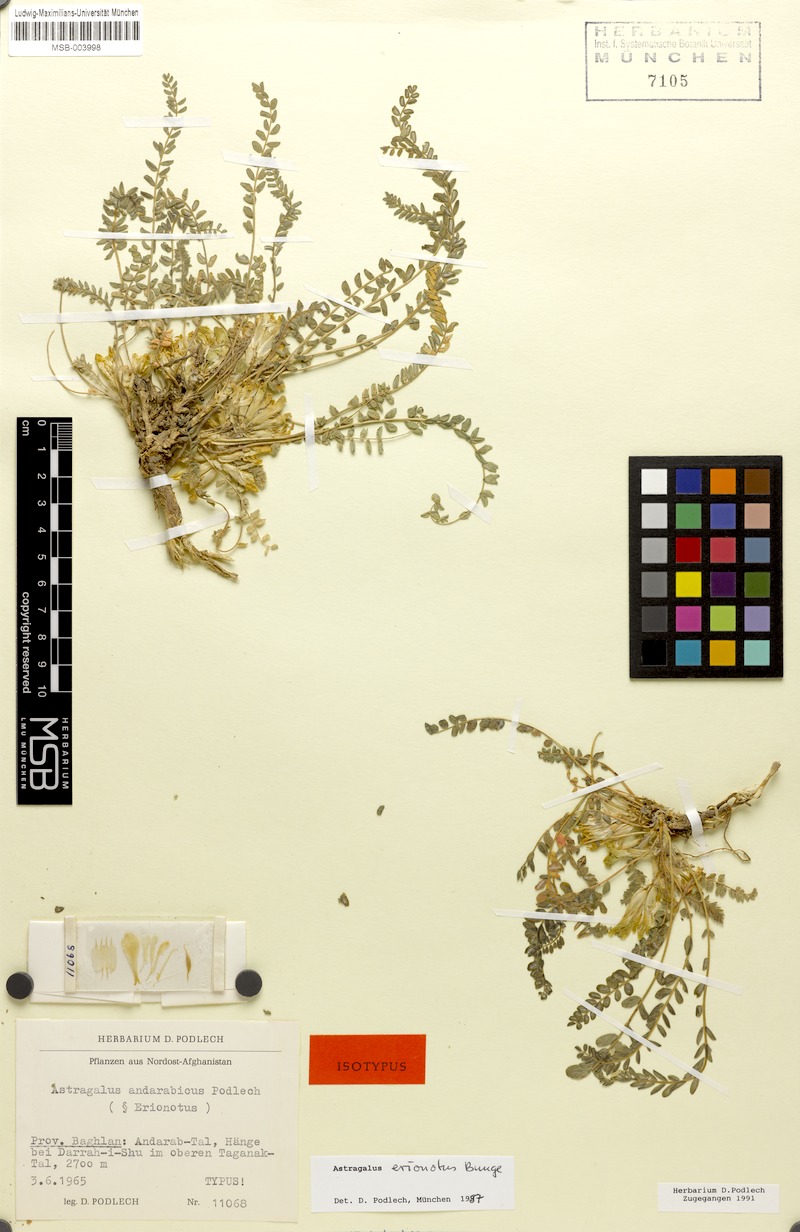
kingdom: Plantae
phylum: Tracheophyta
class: Magnoliopsida
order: Fabales
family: Fabaceae
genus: Astragalus
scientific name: Astragalus erionotus
